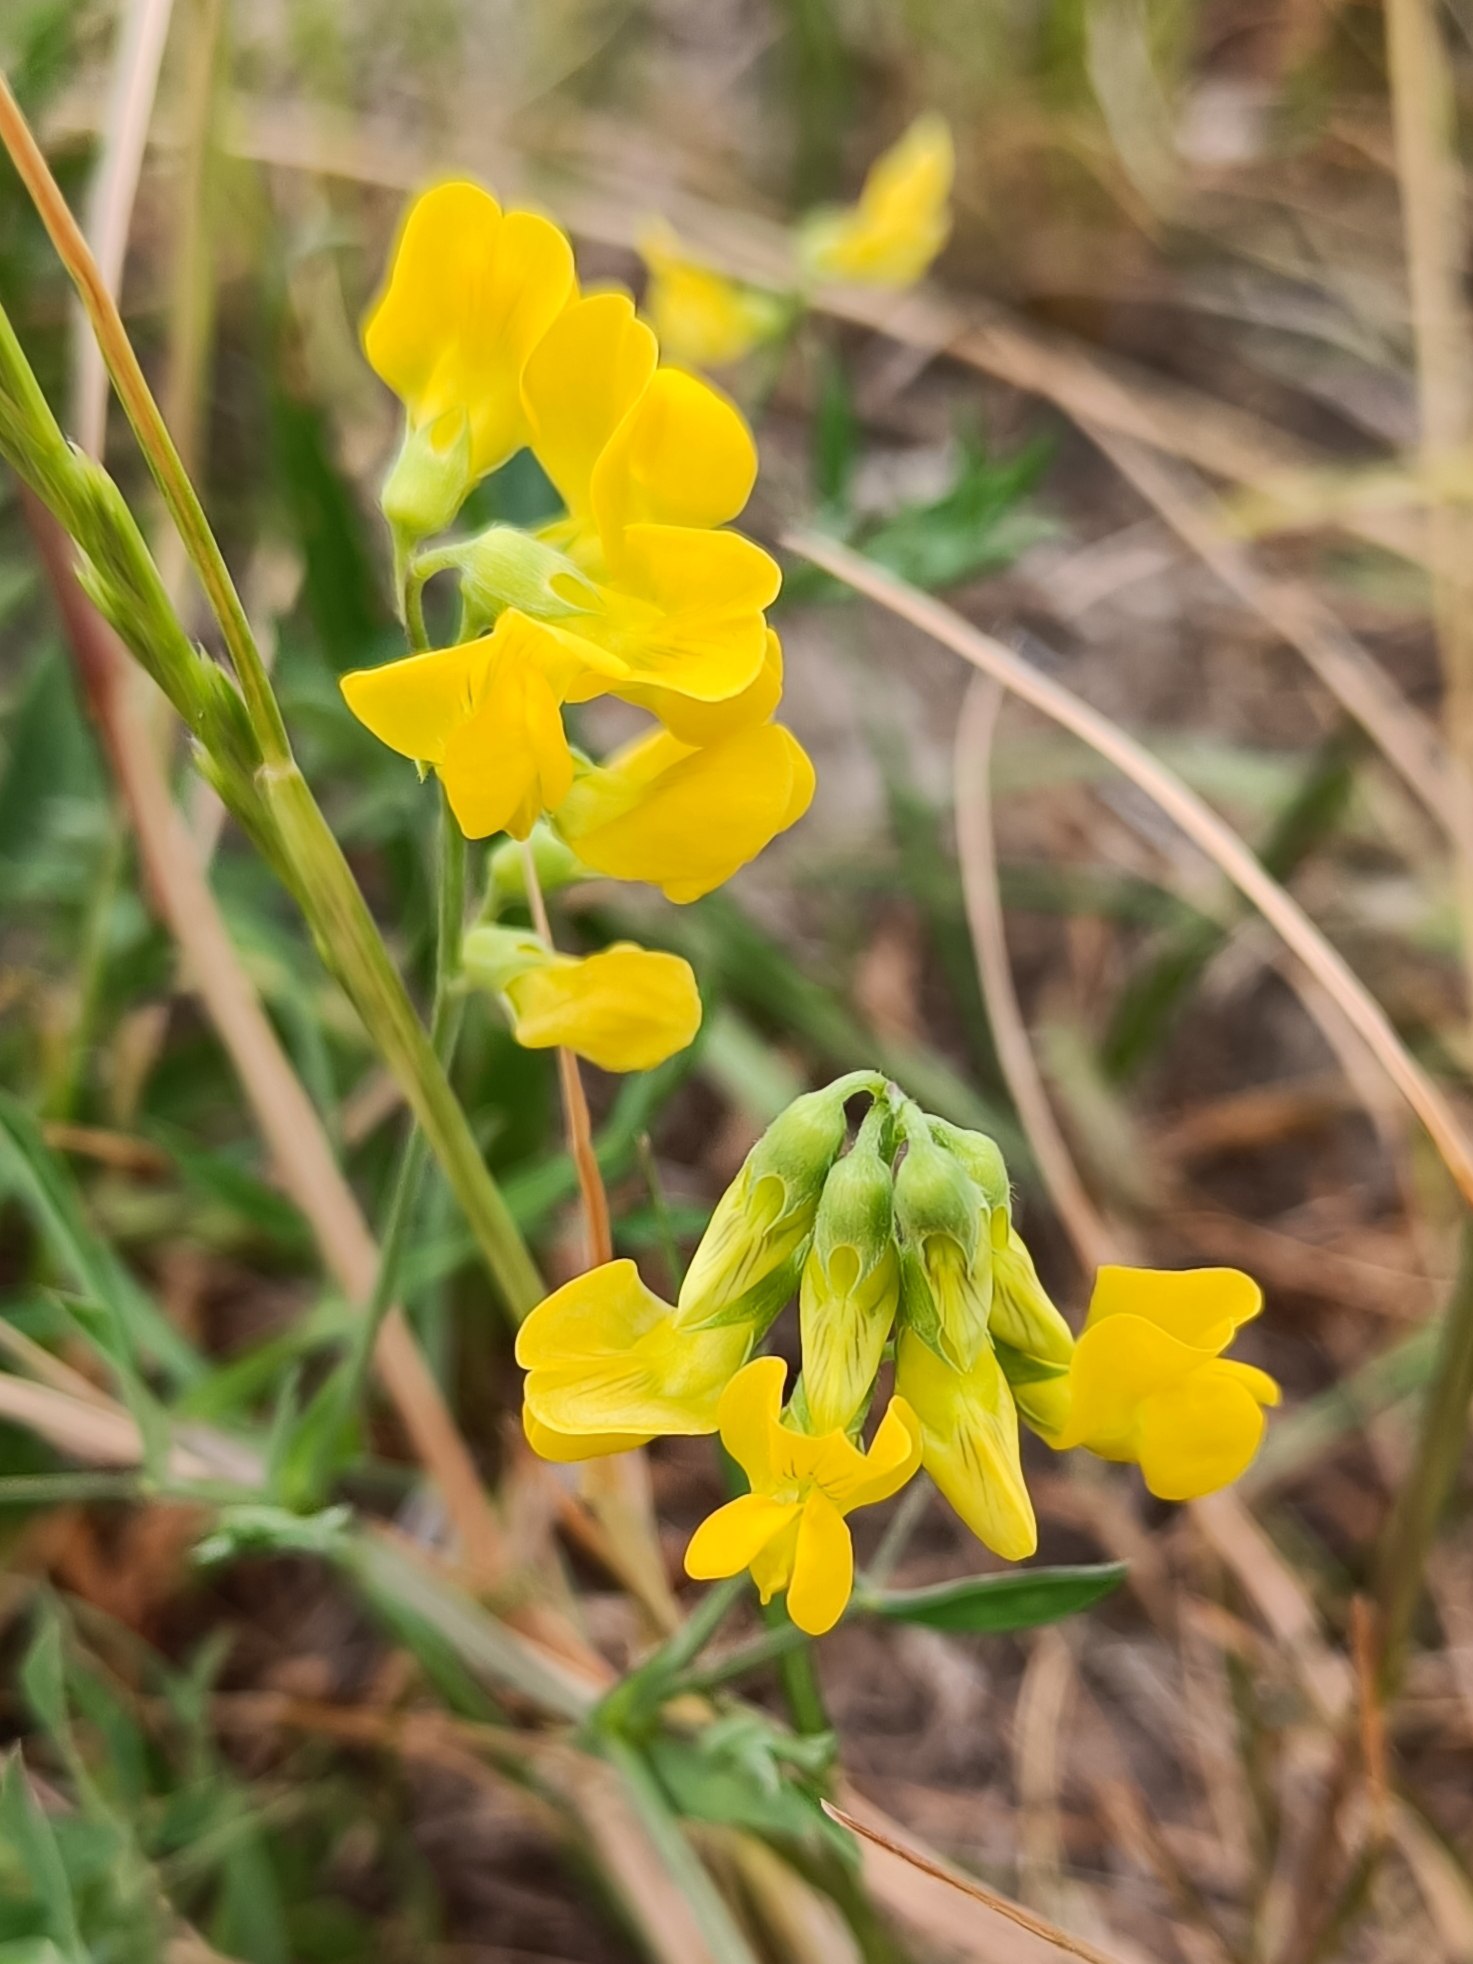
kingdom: Plantae
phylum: Tracheophyta
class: Magnoliopsida
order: Fabales
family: Fabaceae
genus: Lathyrus
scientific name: Lathyrus pratensis
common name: Gul fladbælg
